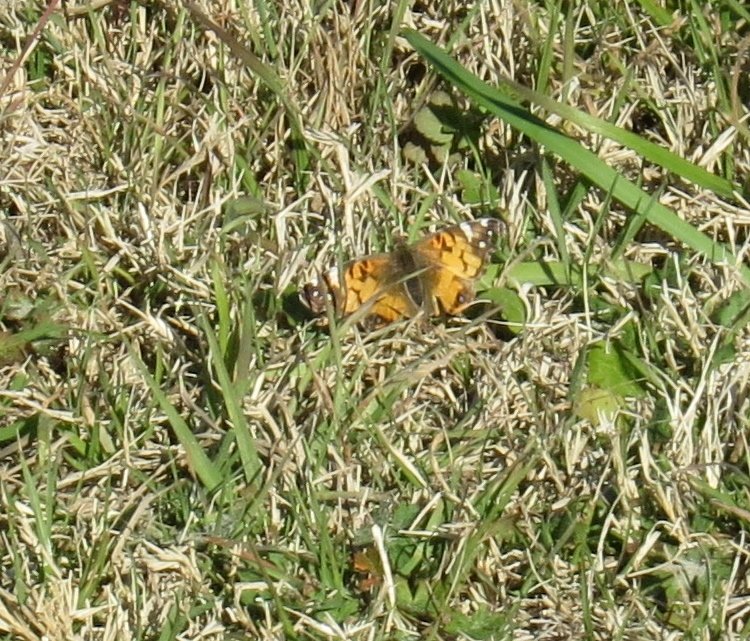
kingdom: Animalia
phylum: Arthropoda
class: Insecta
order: Lepidoptera
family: Nymphalidae
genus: Vanessa
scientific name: Vanessa virginiensis
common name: American Lady
